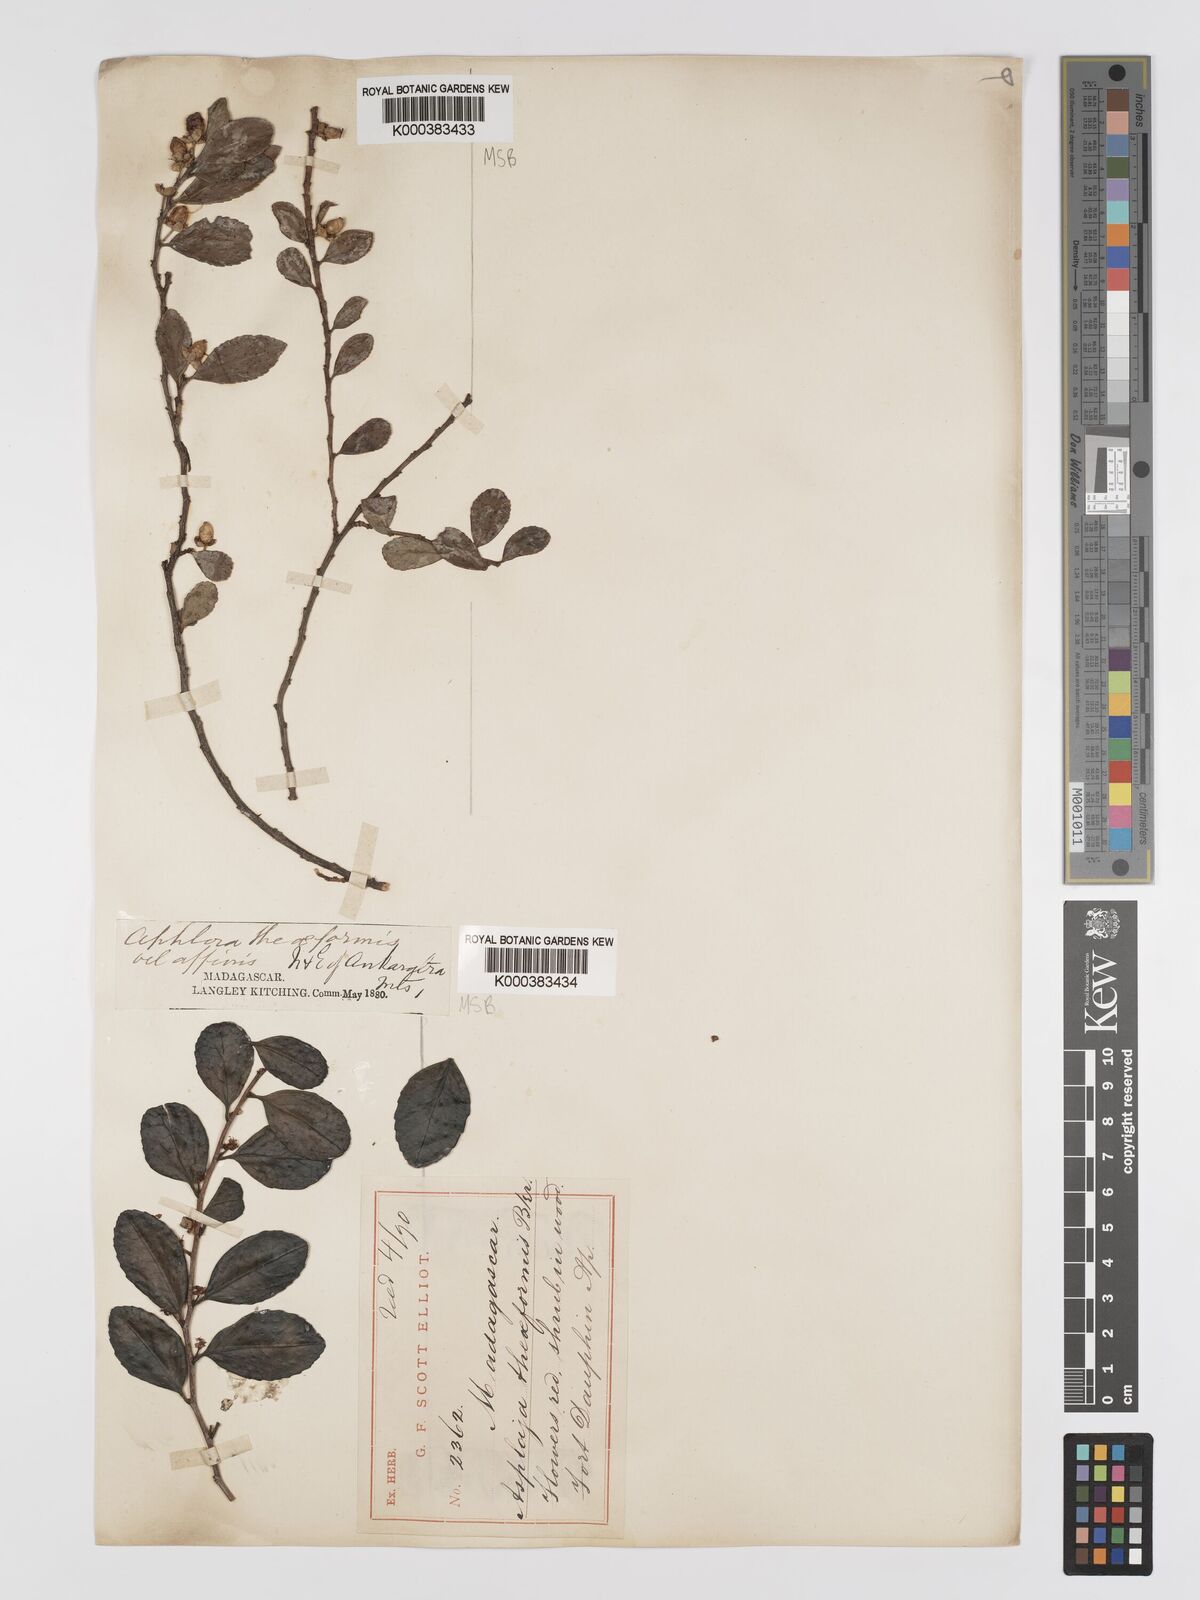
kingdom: Plantae
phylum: Tracheophyta
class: Magnoliopsida
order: Crossosomatales
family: Aphloiaceae
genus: Aphloia
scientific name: Aphloia theiformis
